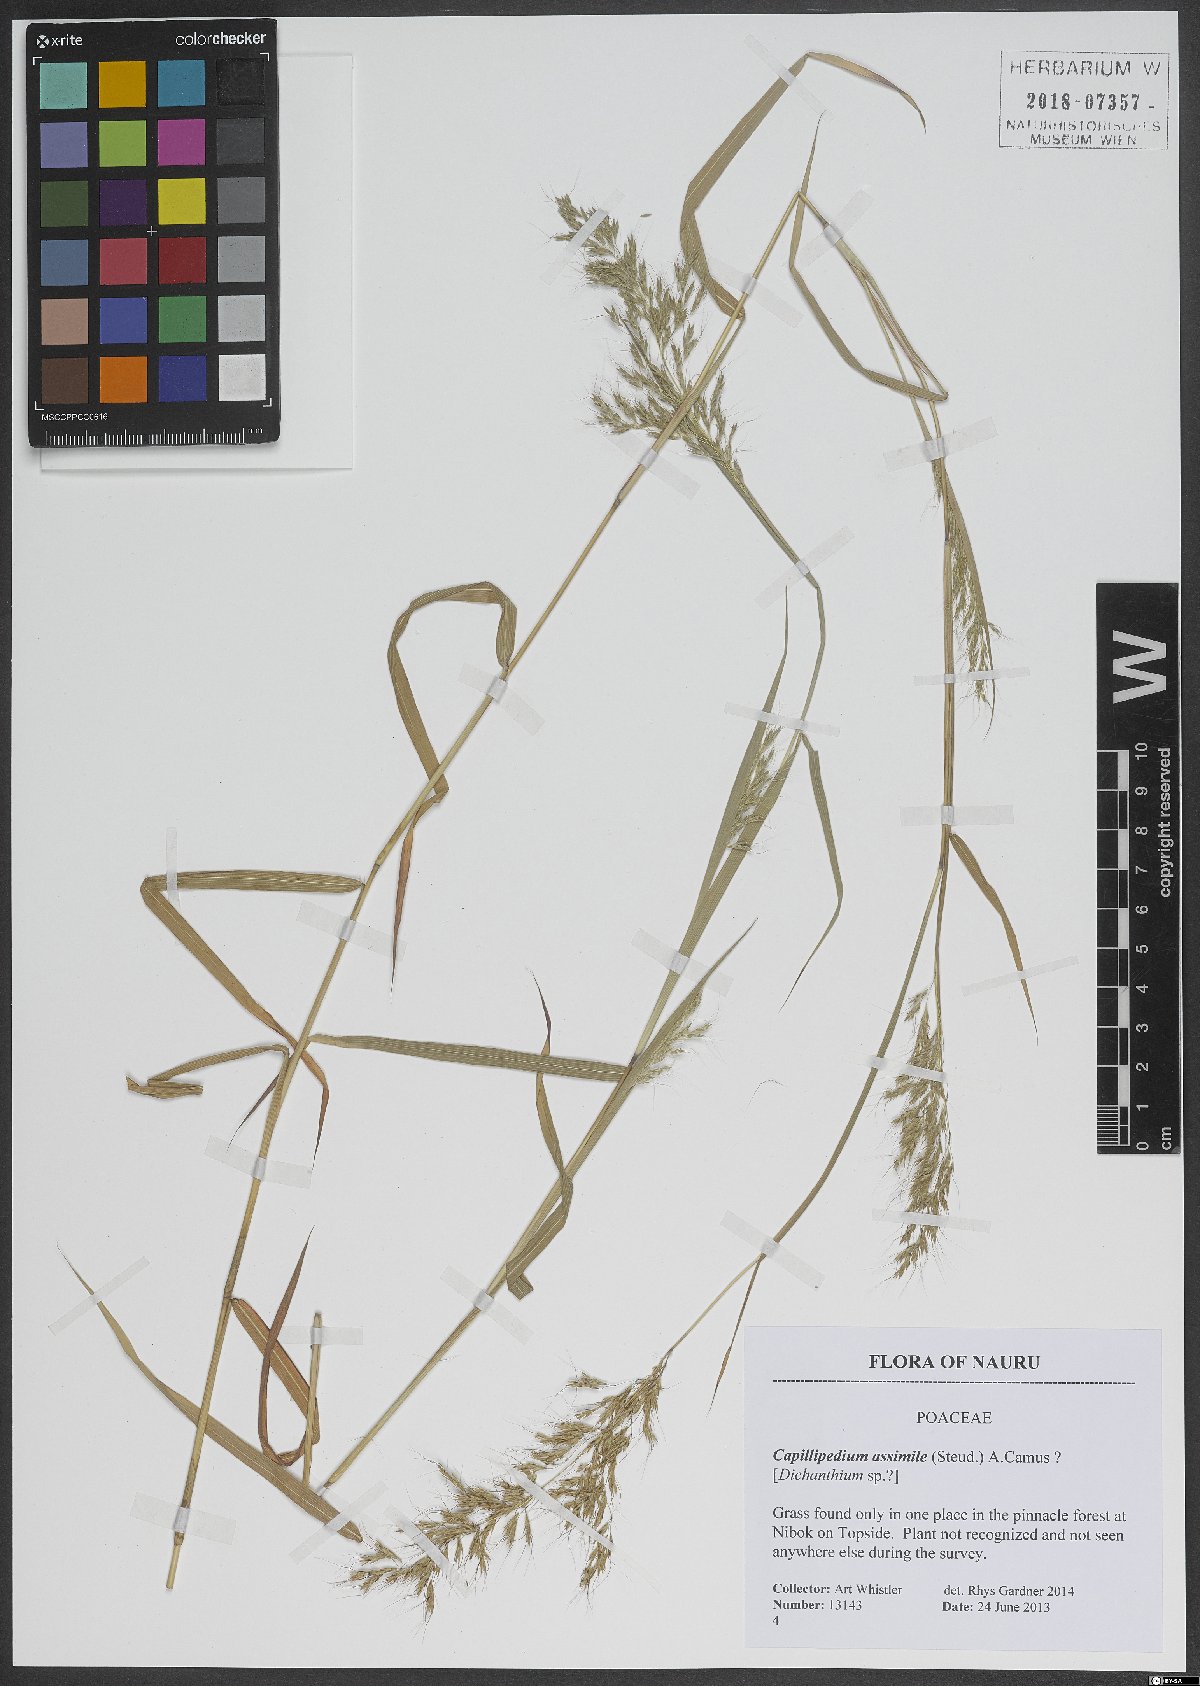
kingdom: Plantae
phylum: Tracheophyta
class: Liliopsida
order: Poales
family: Poaceae
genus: Capillipedium
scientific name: Capillipedium assimile
